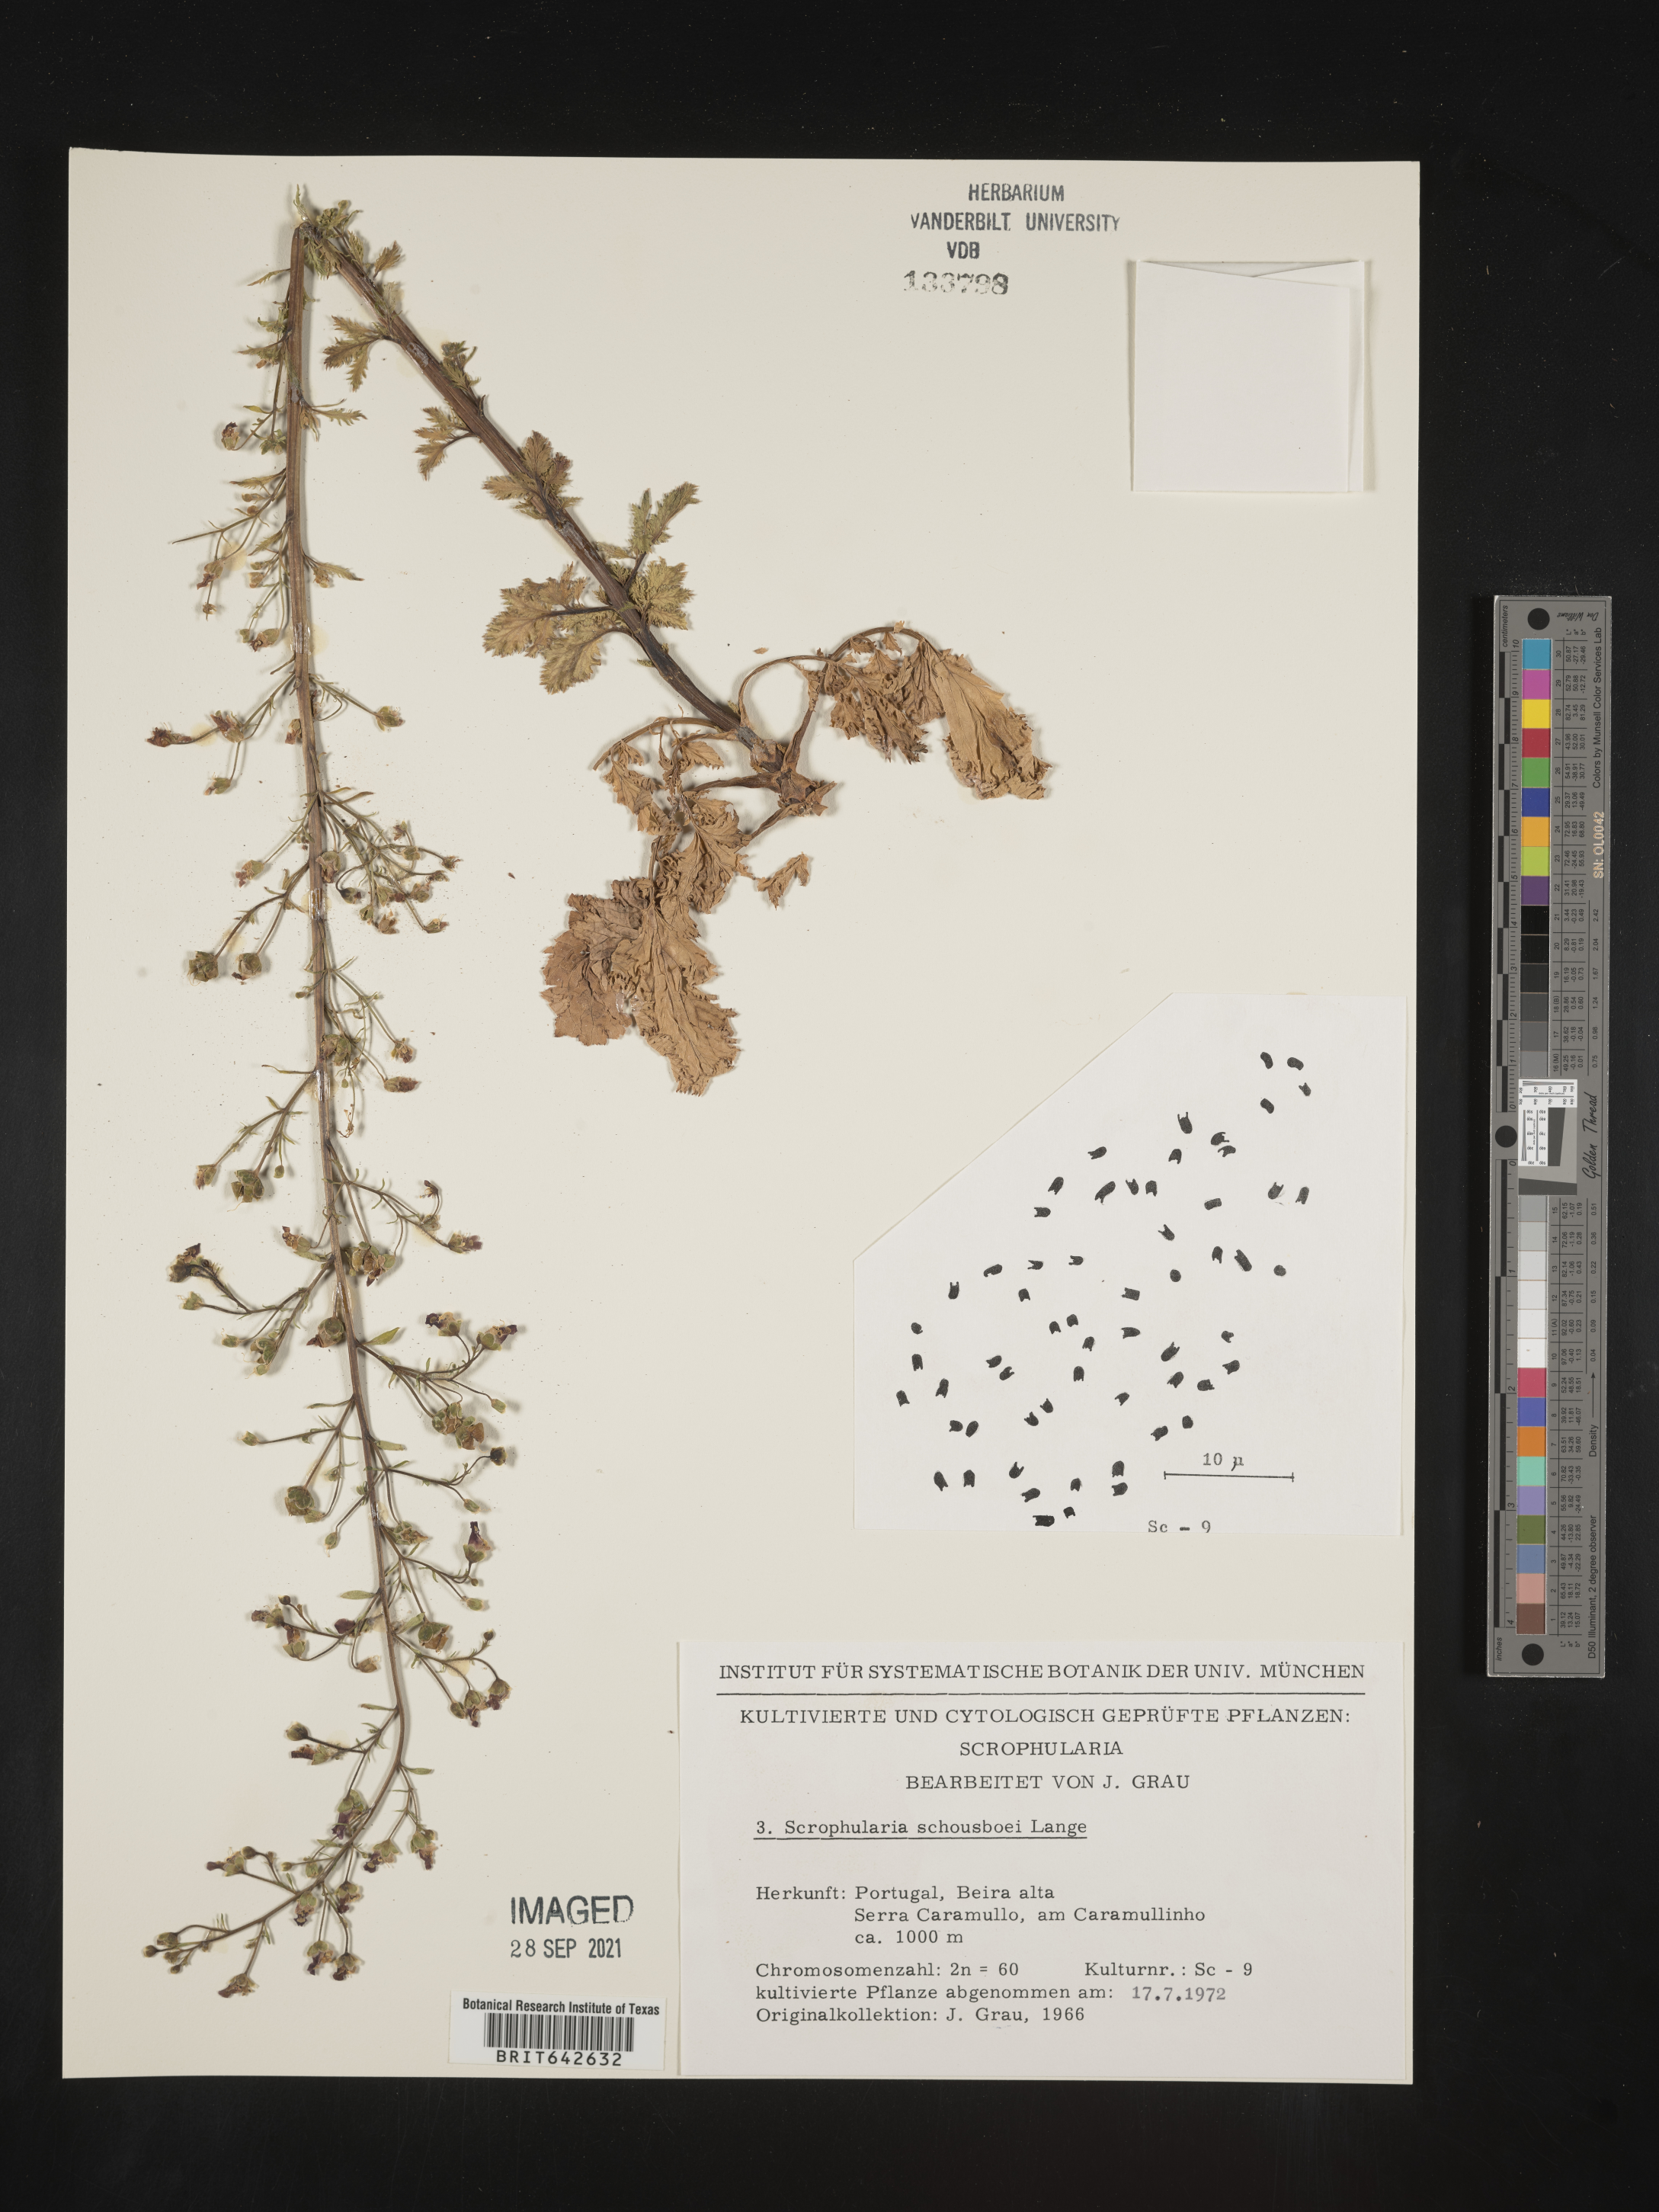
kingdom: Plantae
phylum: Tracheophyta
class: Magnoliopsida
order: Lamiales
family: Scrophulariaceae
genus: Scrophularia
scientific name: Scrophularia
